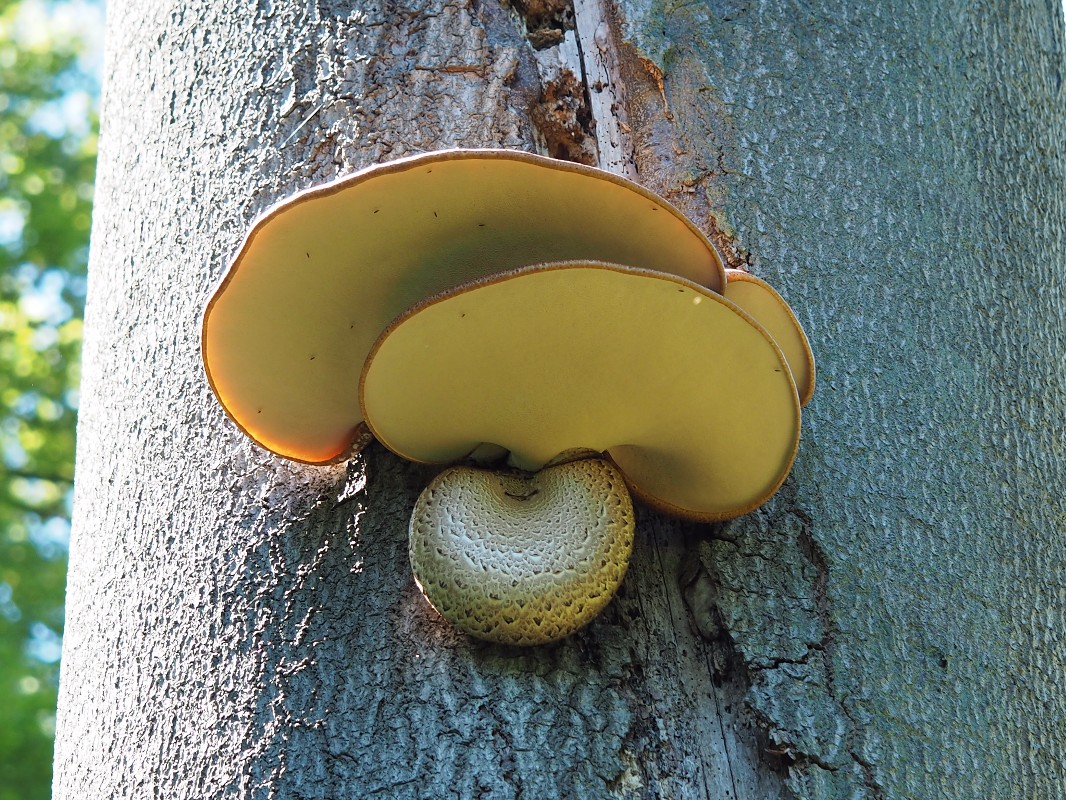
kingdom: Fungi
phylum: Basidiomycota
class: Agaricomycetes
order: Polyporales
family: Polyporaceae
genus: Cerioporus
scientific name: Cerioporus squamosus
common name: skællet stilkporesvamp
